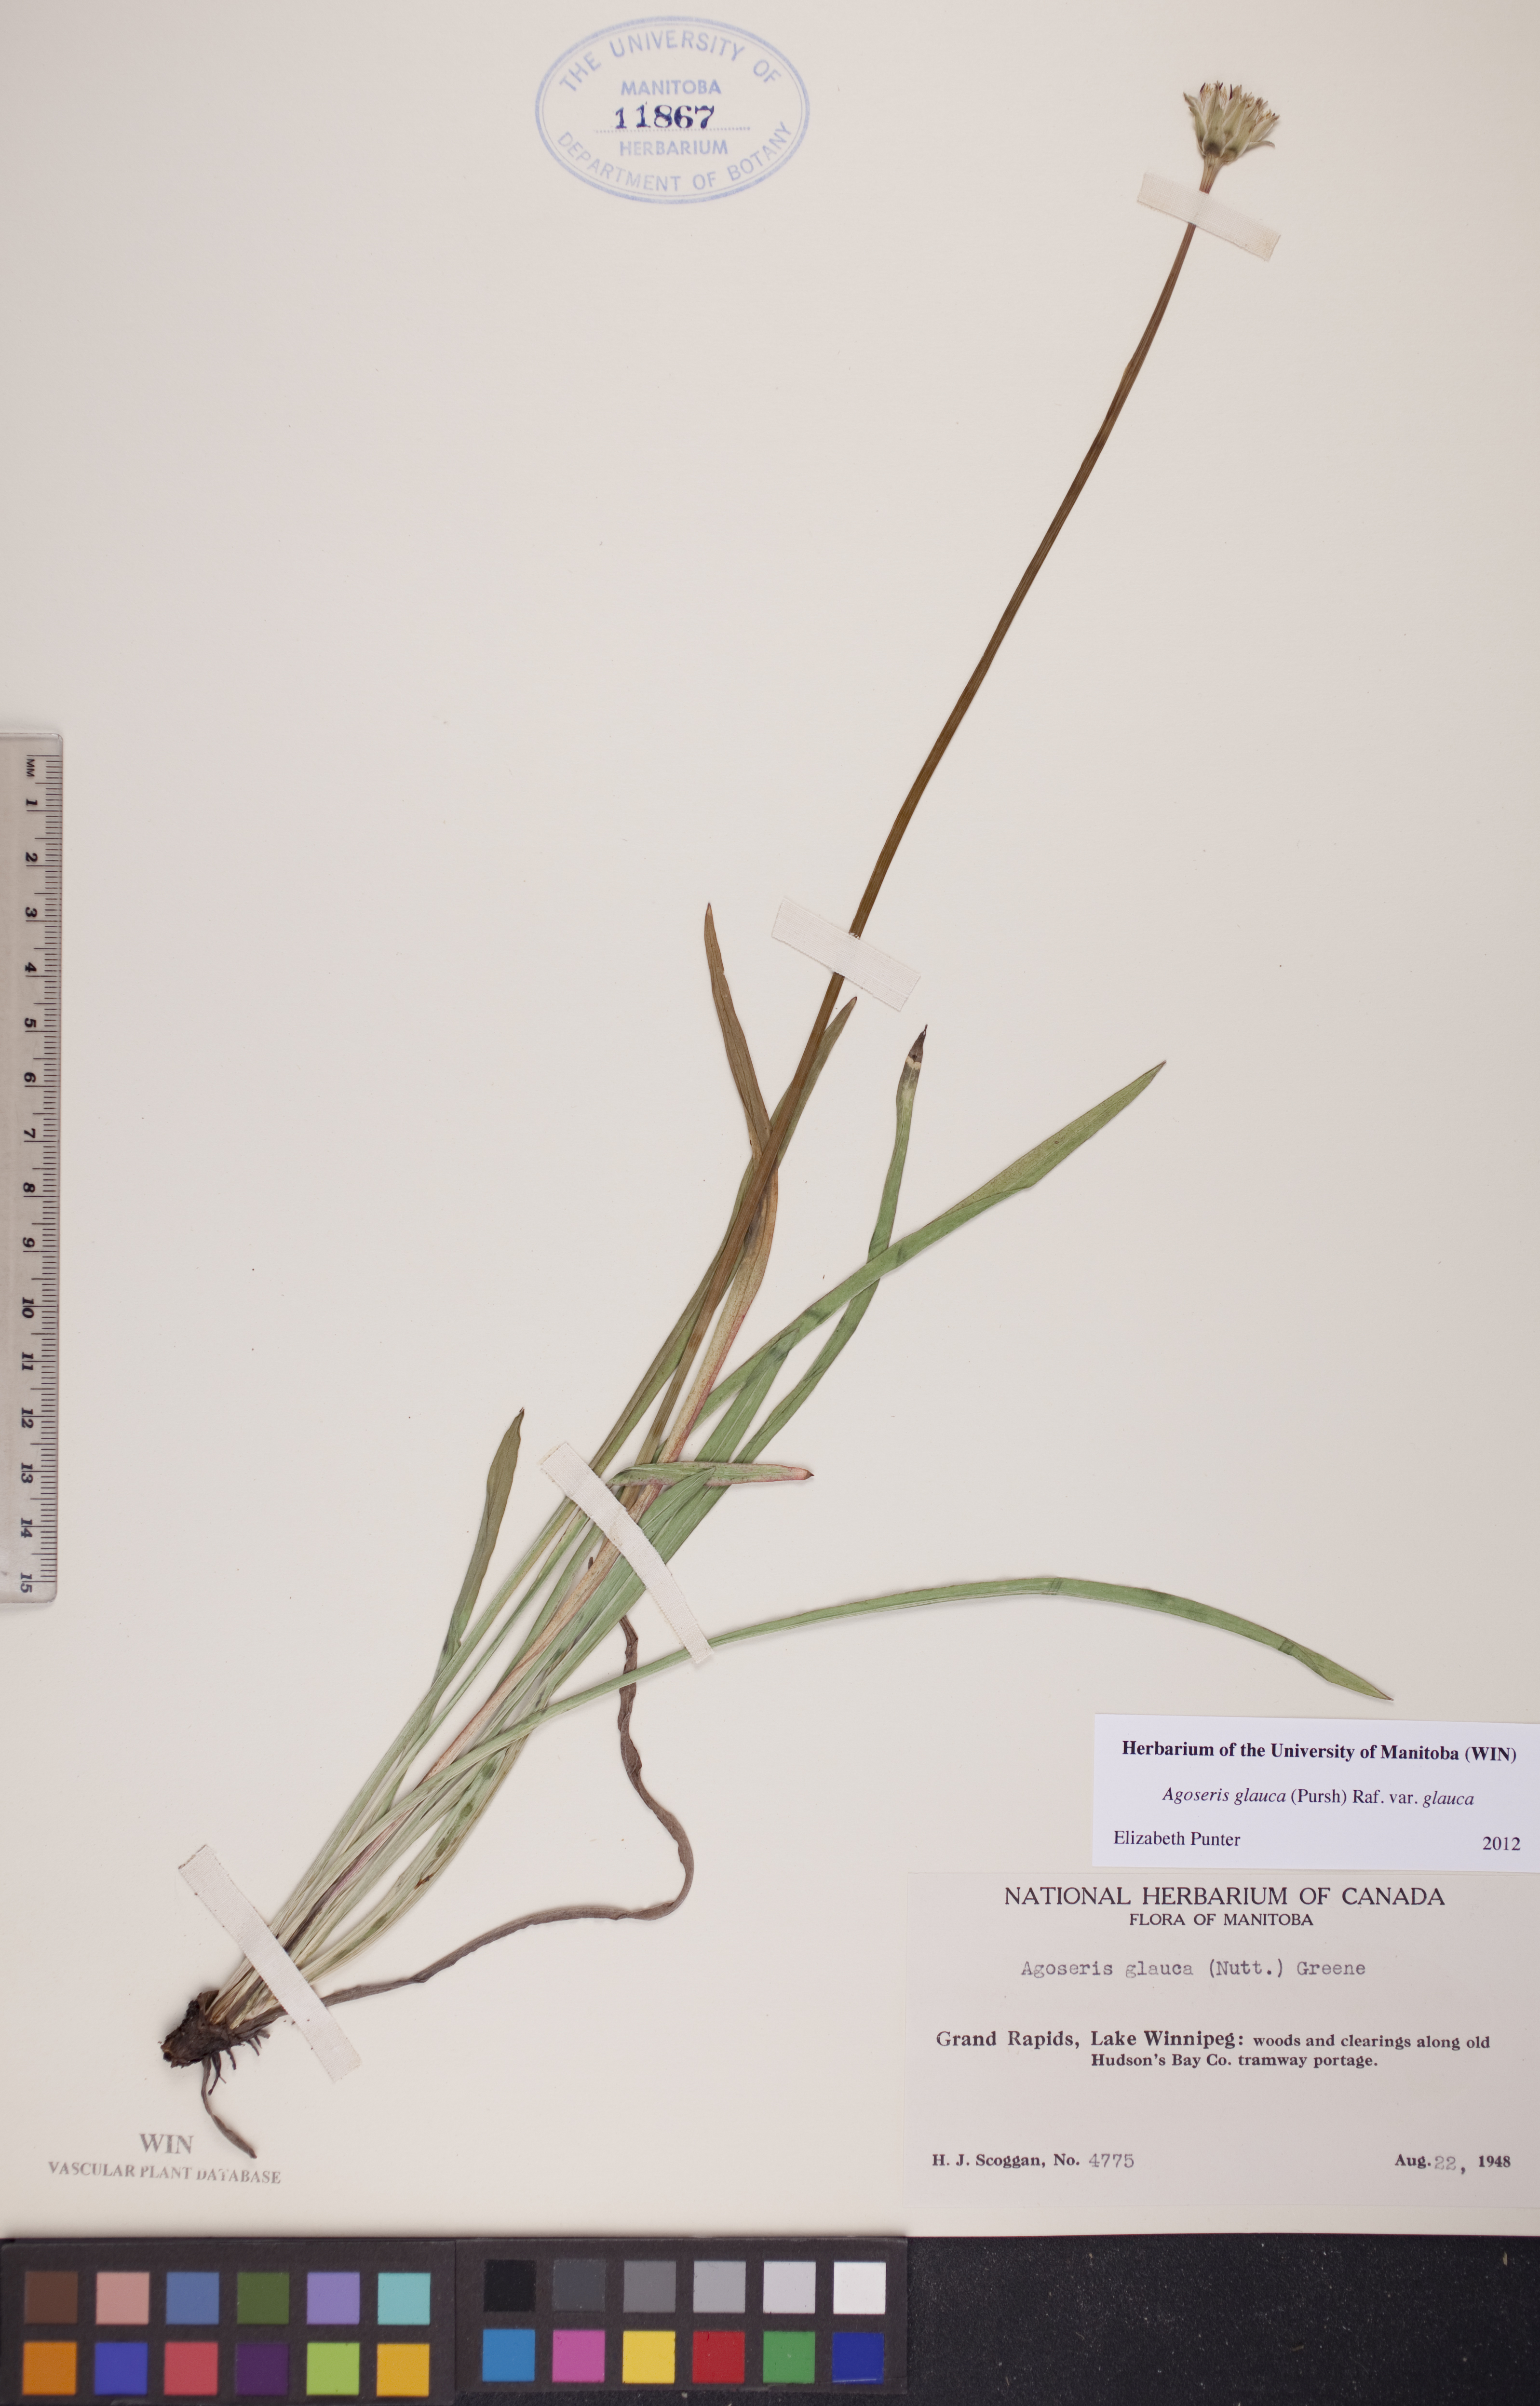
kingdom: Plantae
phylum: Tracheophyta
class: Magnoliopsida
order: Asterales
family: Asteraceae
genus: Agoseris
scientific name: Agoseris glauca
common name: Prairie agoseris
